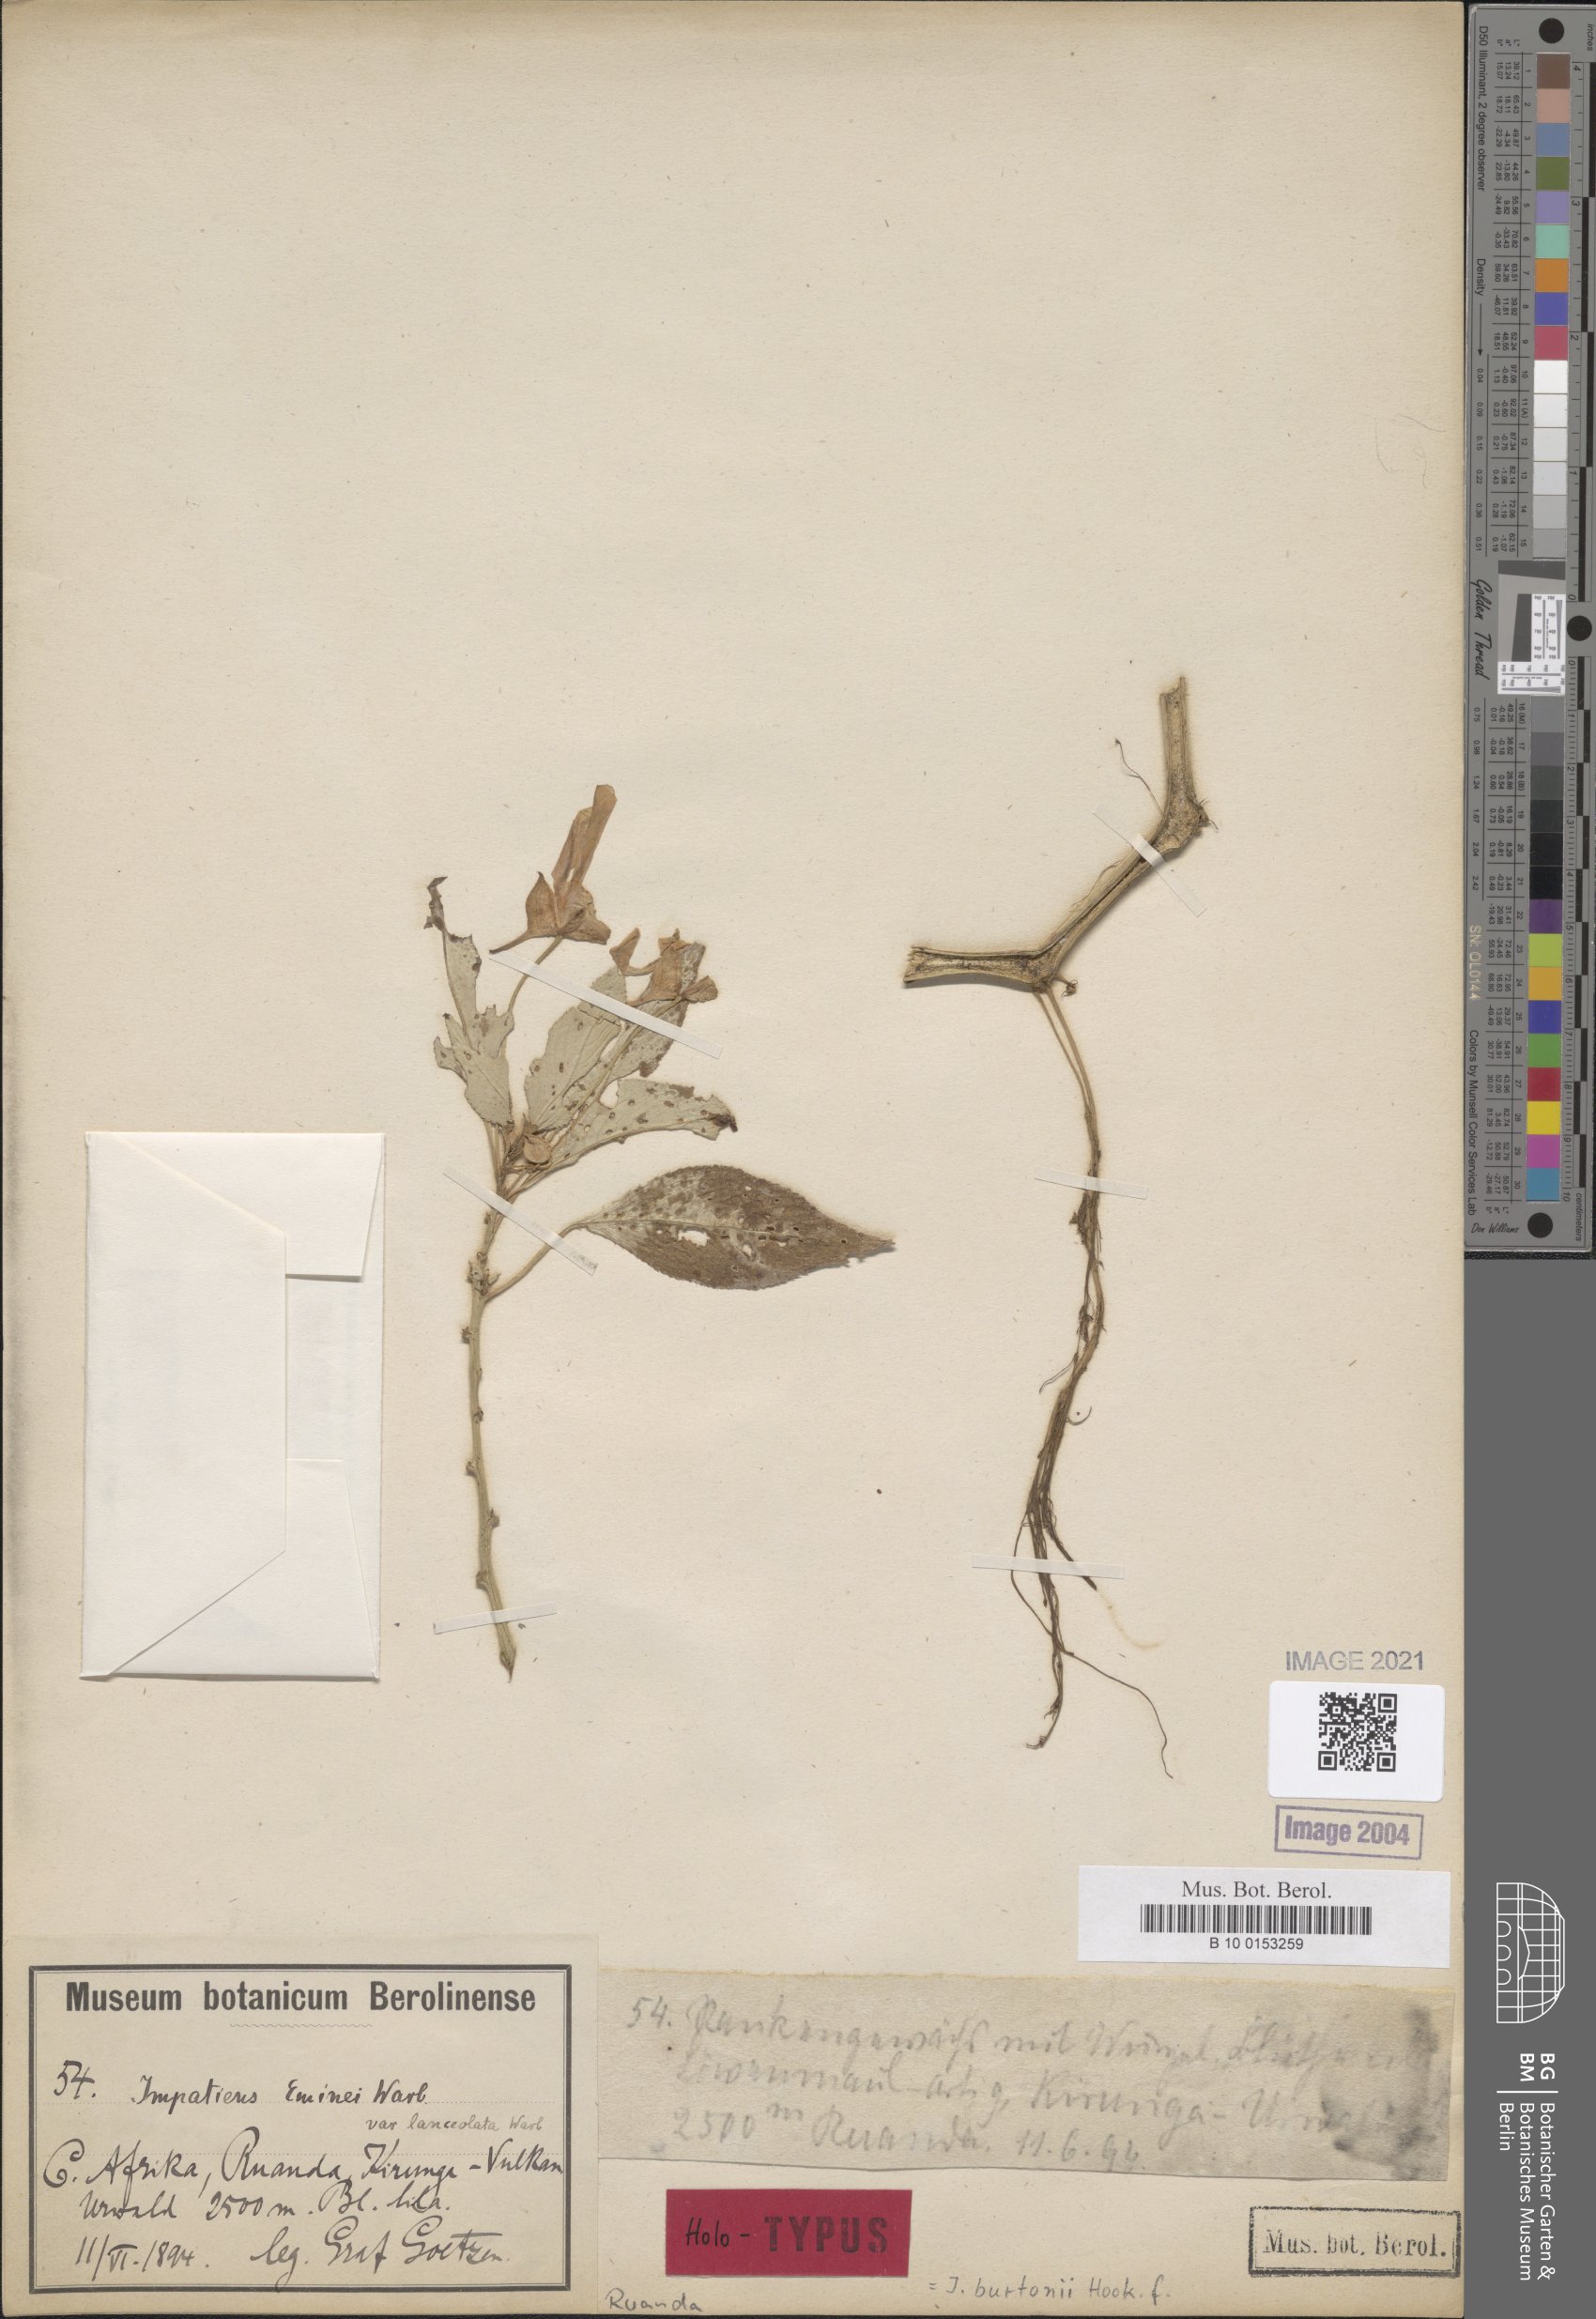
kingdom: Plantae
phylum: Tracheophyta
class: Magnoliopsida
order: Ericales
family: Balsaminaceae
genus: Impatiens
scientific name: Impatiens burtonii
